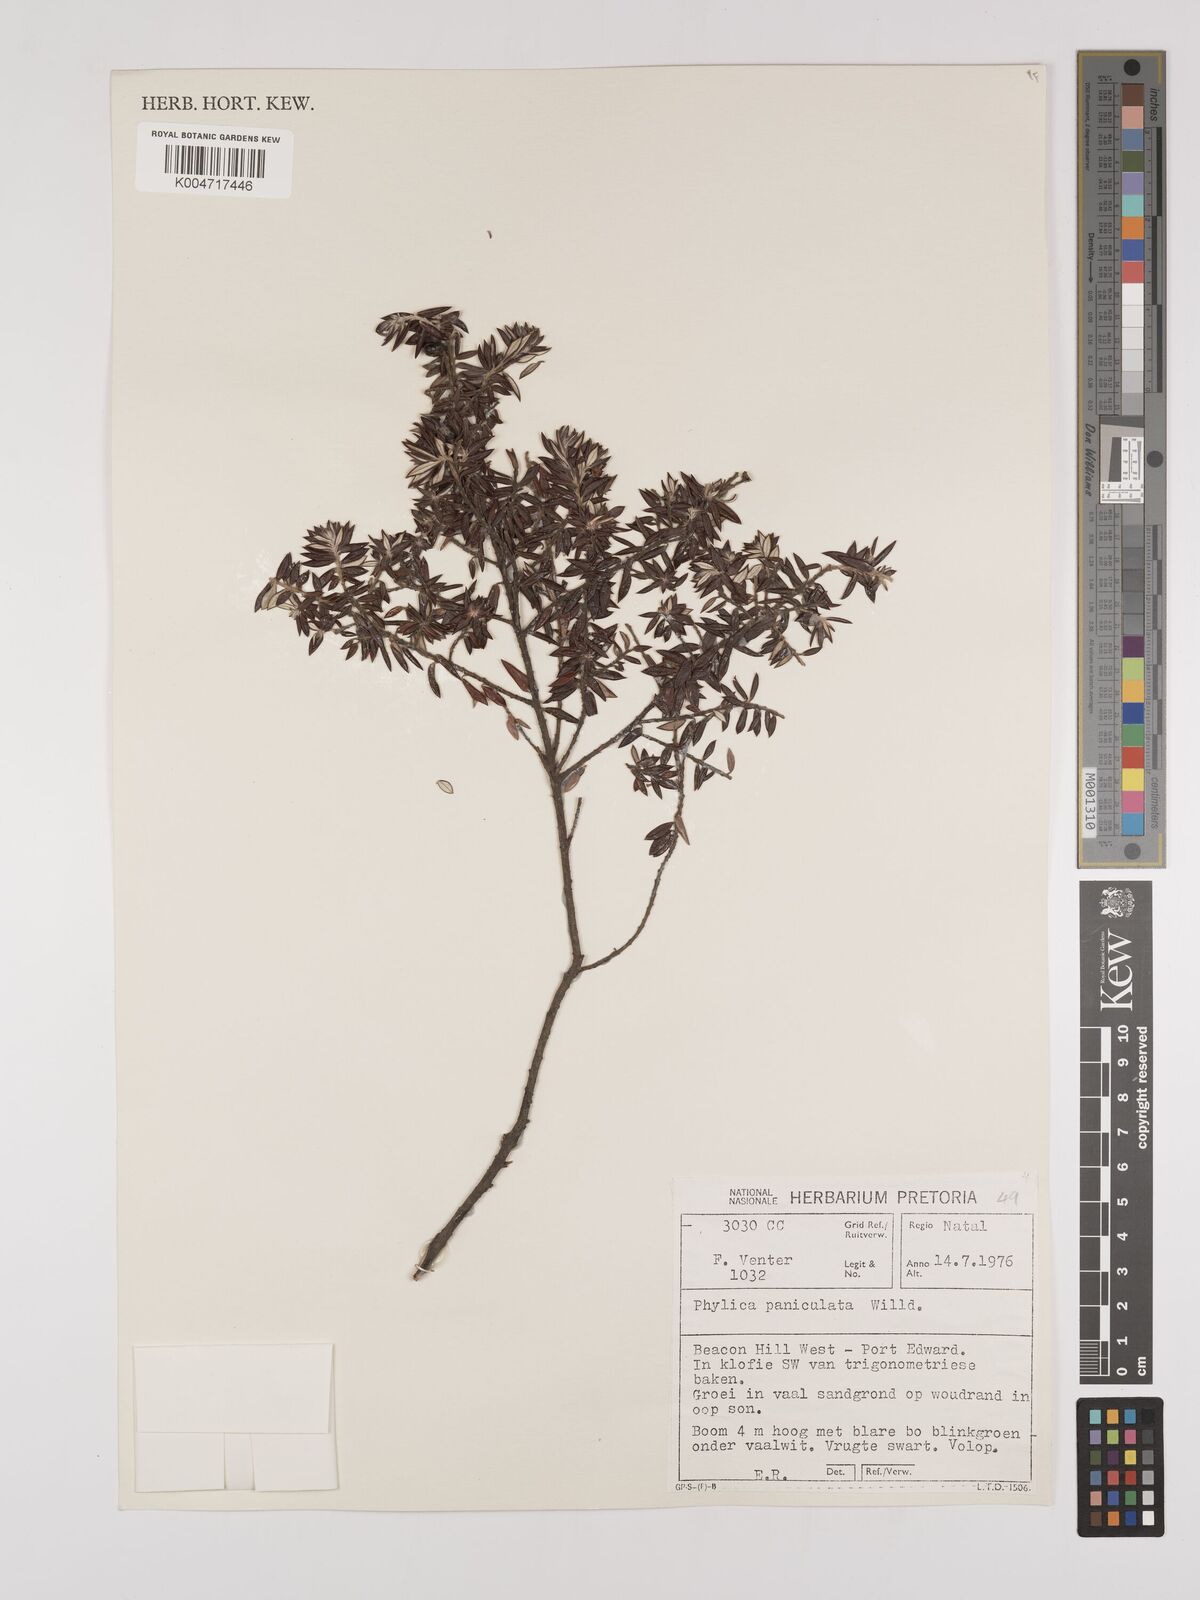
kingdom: Plantae
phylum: Tracheophyta
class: Magnoliopsida
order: Rosales
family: Rhamnaceae
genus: Phylica
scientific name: Phylica paniculata
